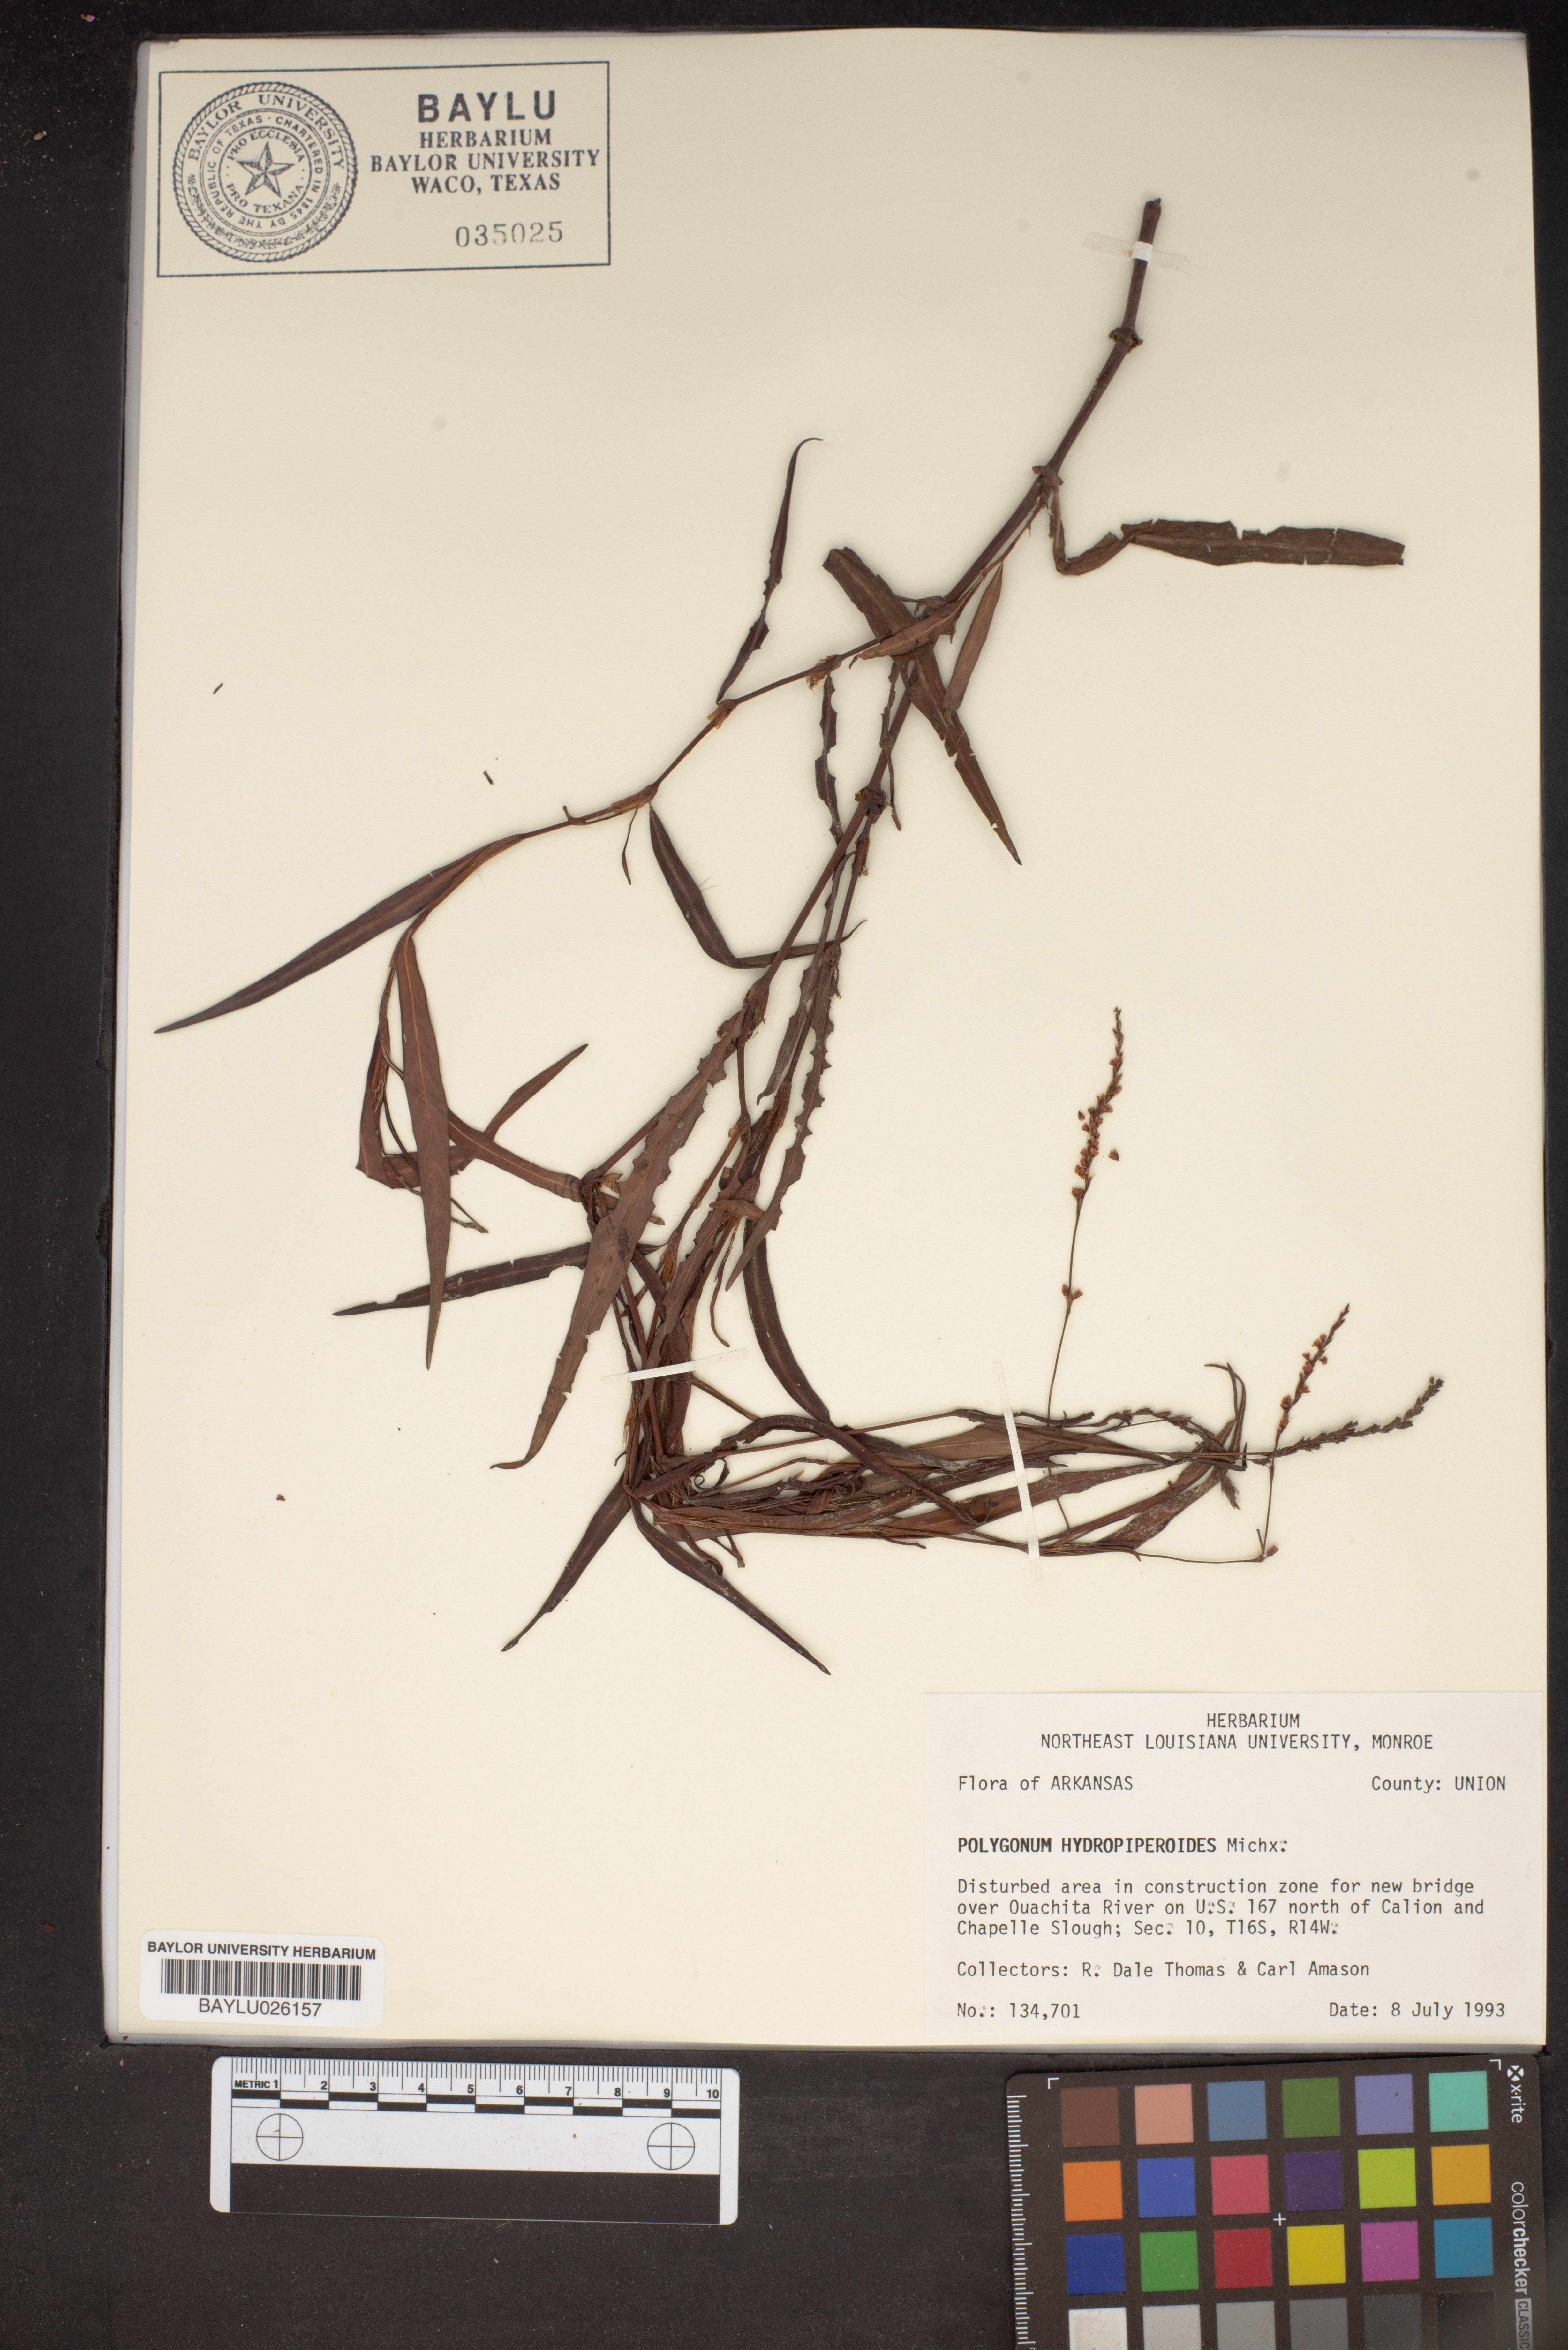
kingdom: Plantae
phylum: Tracheophyta
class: Magnoliopsida
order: Caryophyllales
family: Polygonaceae
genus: Persicaria
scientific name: Persicaria hydropiperoides
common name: Swamp smartweed
